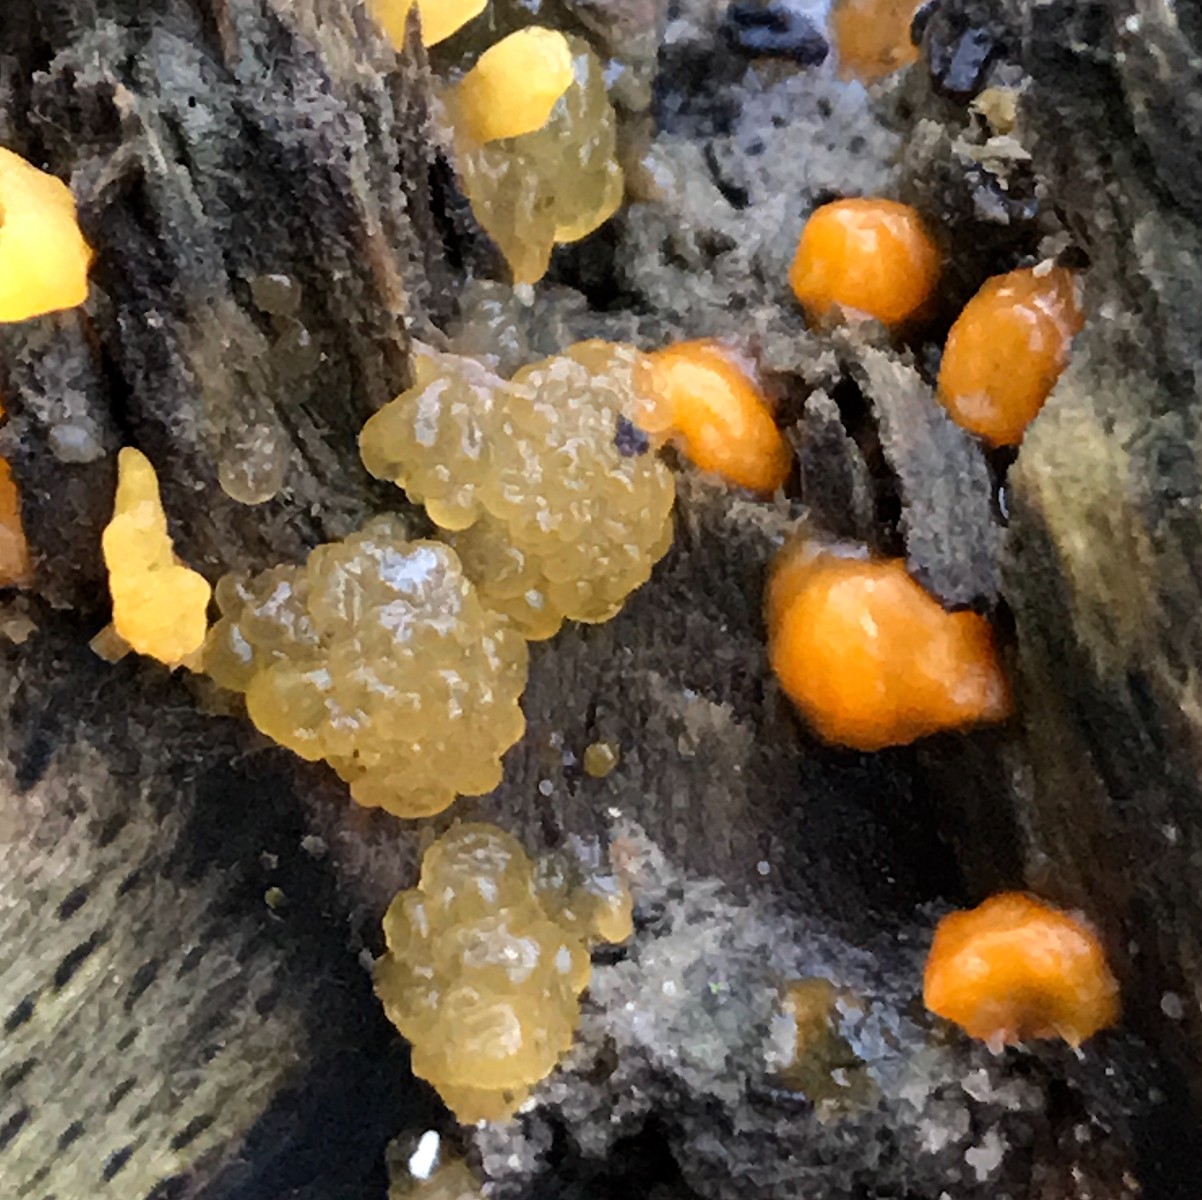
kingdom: Fungi
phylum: Basidiomycota
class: Dacrymycetes
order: Dacrymycetales
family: Dacrymycetaceae
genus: Dacrymyces
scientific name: Dacrymyces stillatus
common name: almindelig tåresvamp
